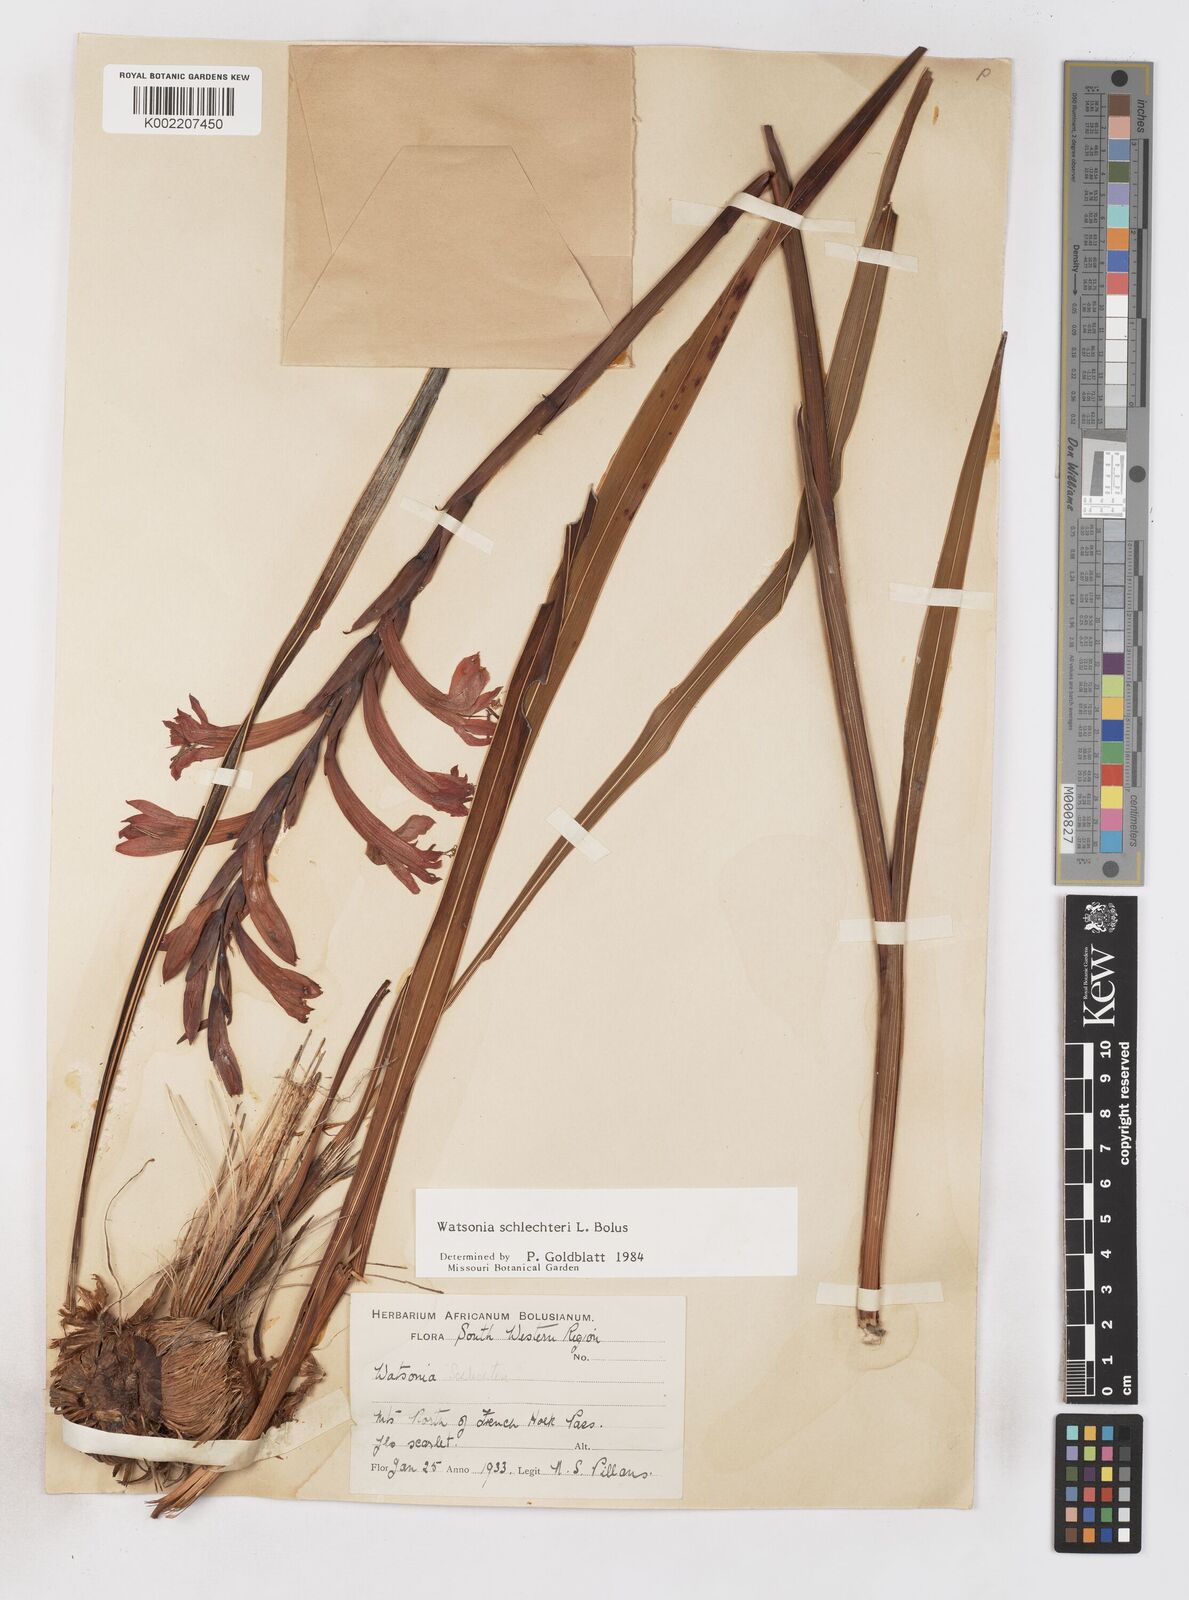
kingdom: Plantae
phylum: Tracheophyta
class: Liliopsida
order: Asparagales
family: Iridaceae
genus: Watsonia
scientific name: Watsonia schlechteri
